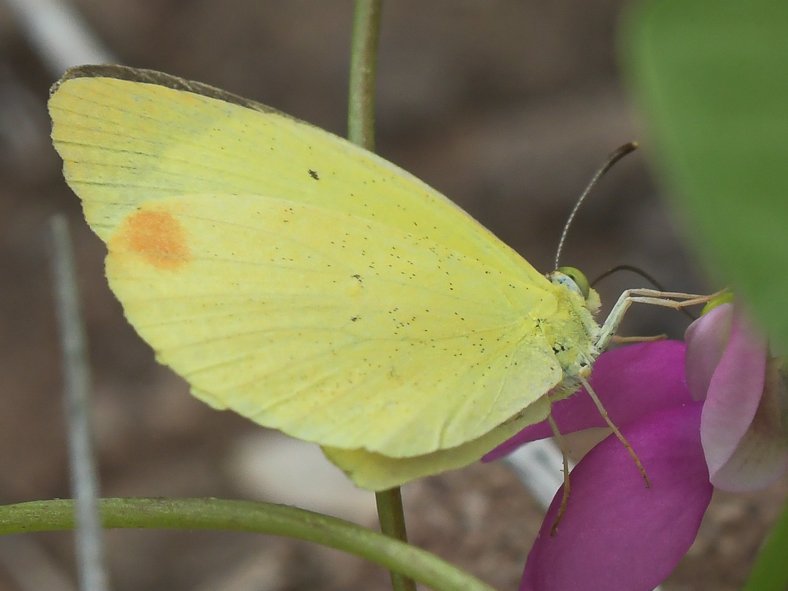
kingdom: Animalia
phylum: Arthropoda
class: Insecta
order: Lepidoptera
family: Pieridae
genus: Pyrisitia
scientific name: Pyrisitia nise
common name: Mimosa Yellow
